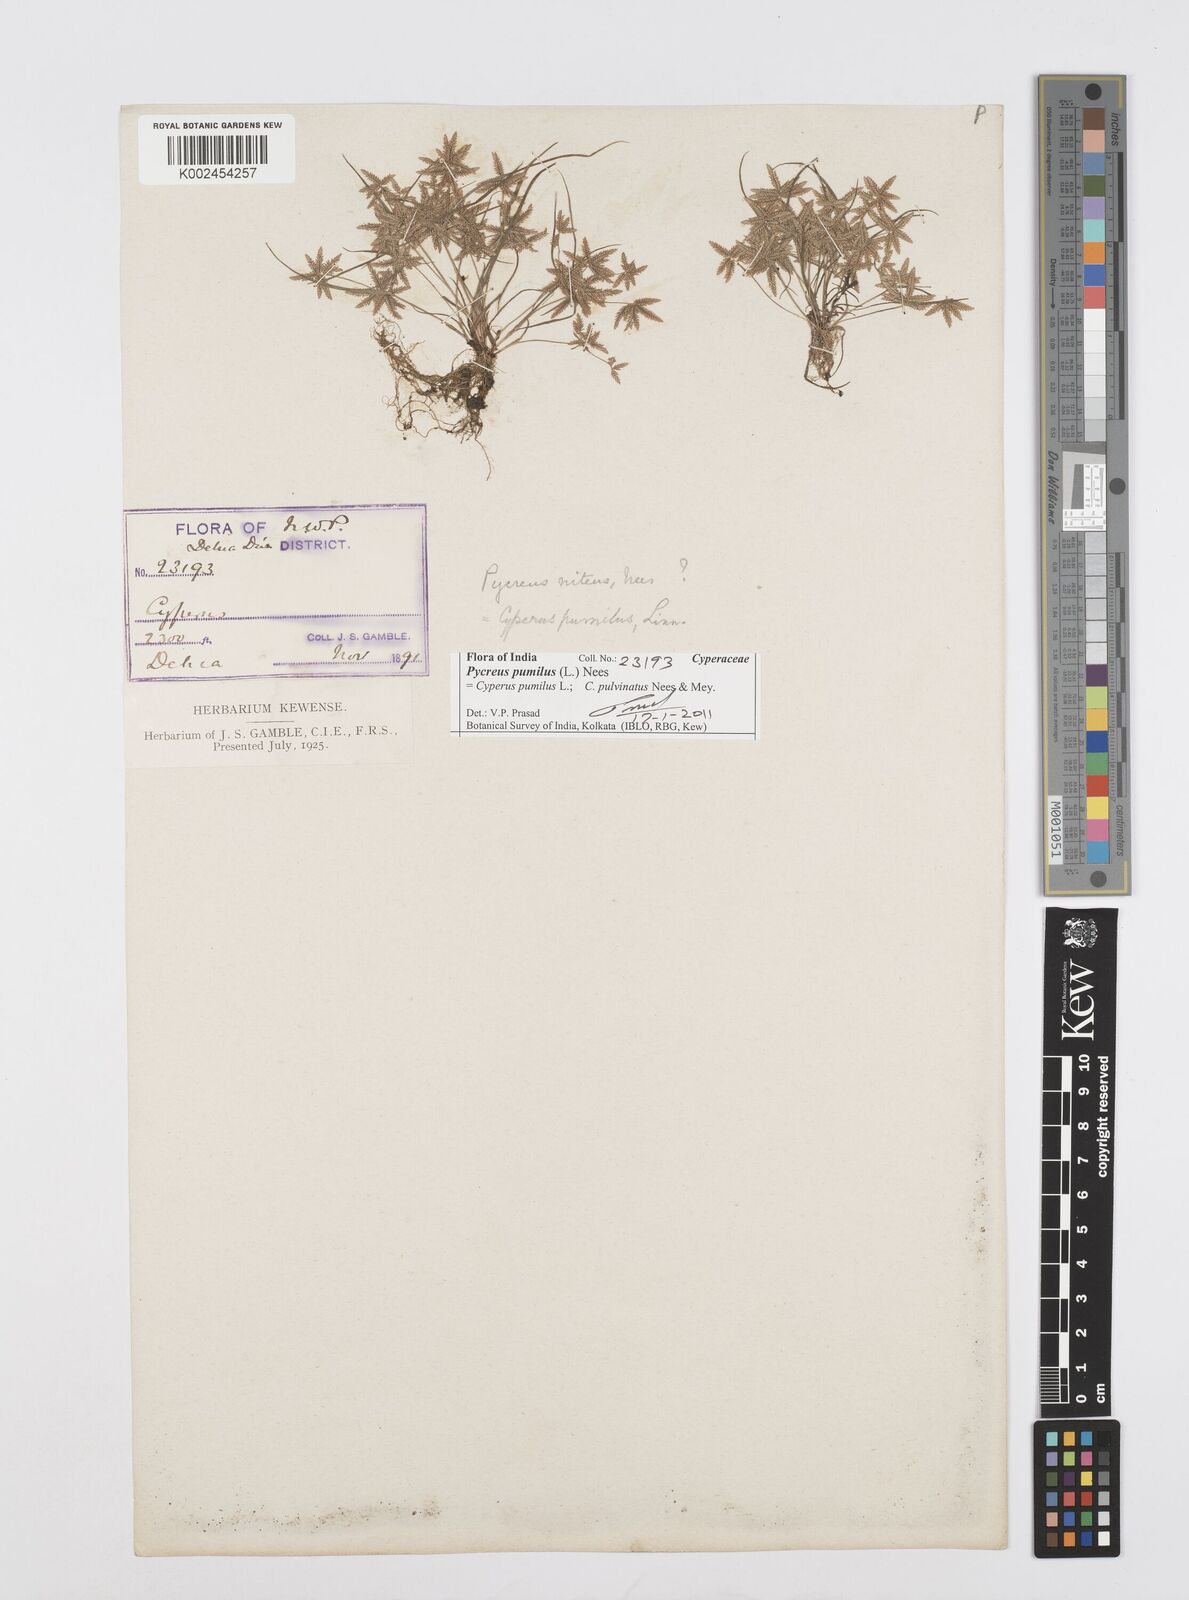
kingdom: Plantae
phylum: Tracheophyta
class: Liliopsida
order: Poales
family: Cyperaceae
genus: Cyperus
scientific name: Cyperus pumilus
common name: Low flatsedge
